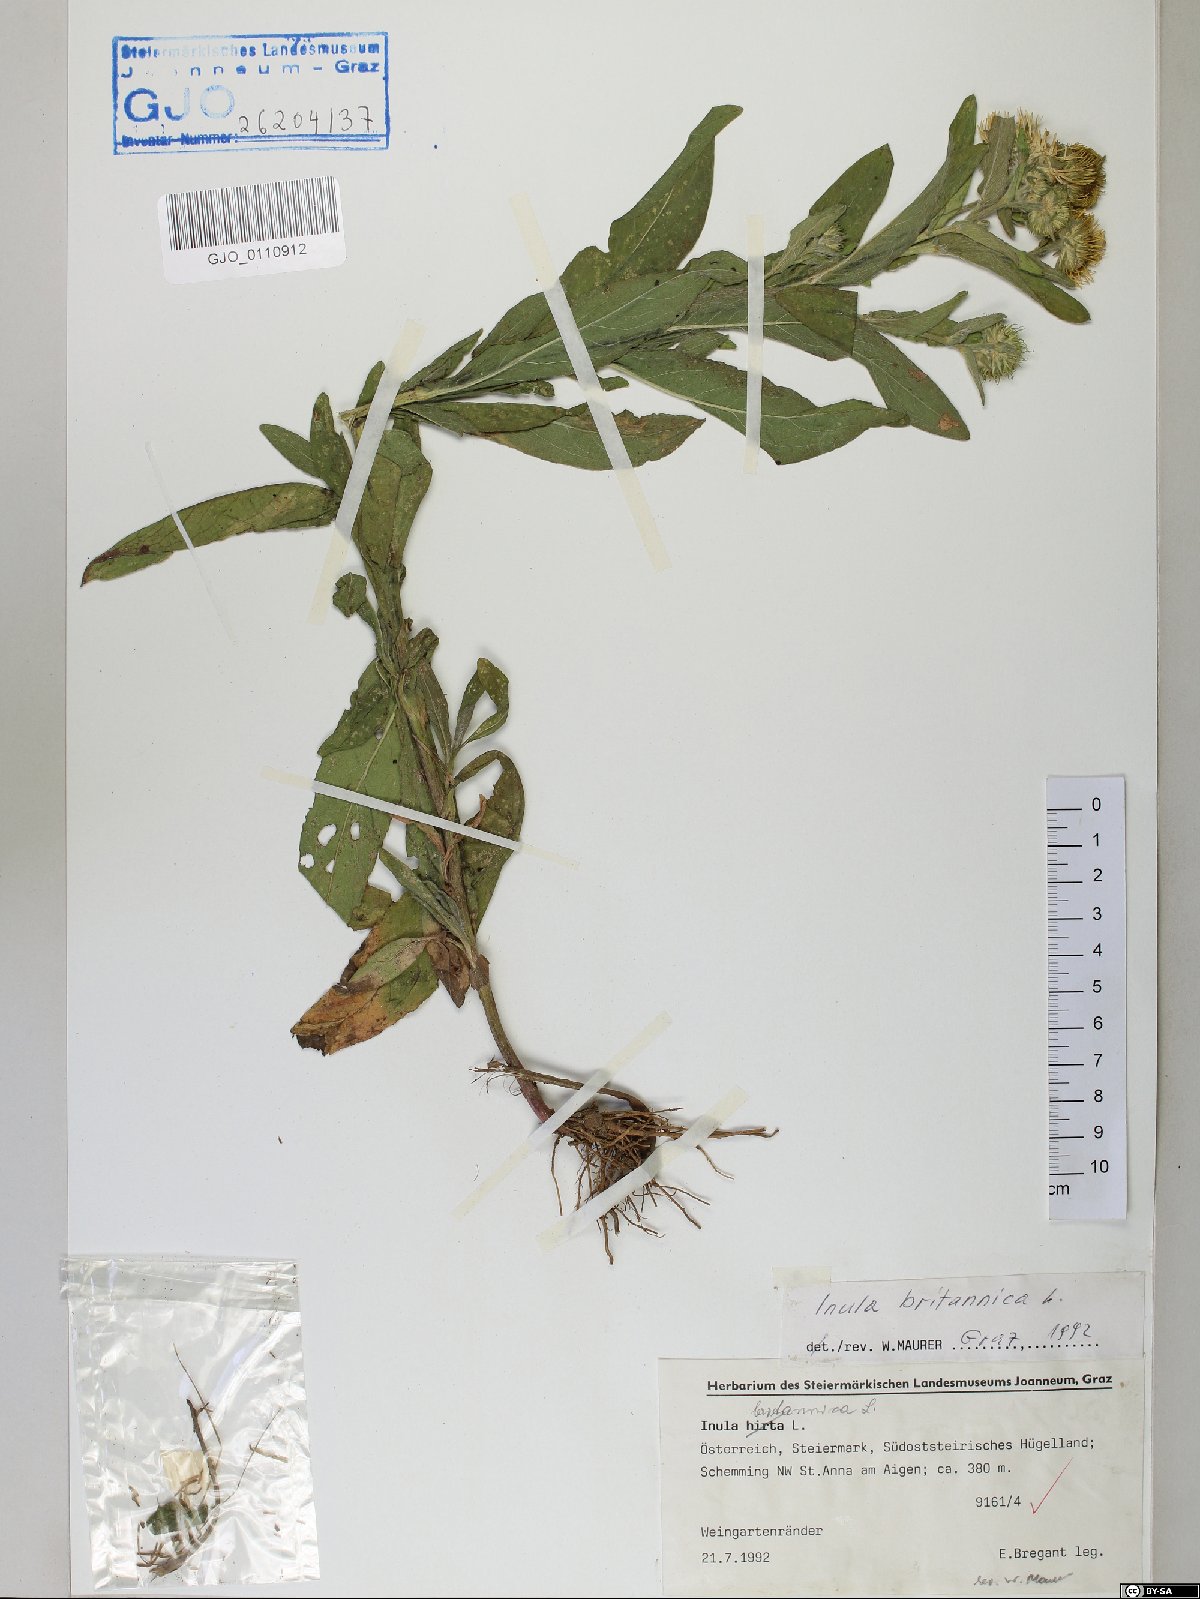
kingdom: Plantae
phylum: Tracheophyta
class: Magnoliopsida
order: Asterales
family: Asteraceae
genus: Pentanema
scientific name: Pentanema britannicum
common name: British elecampane
